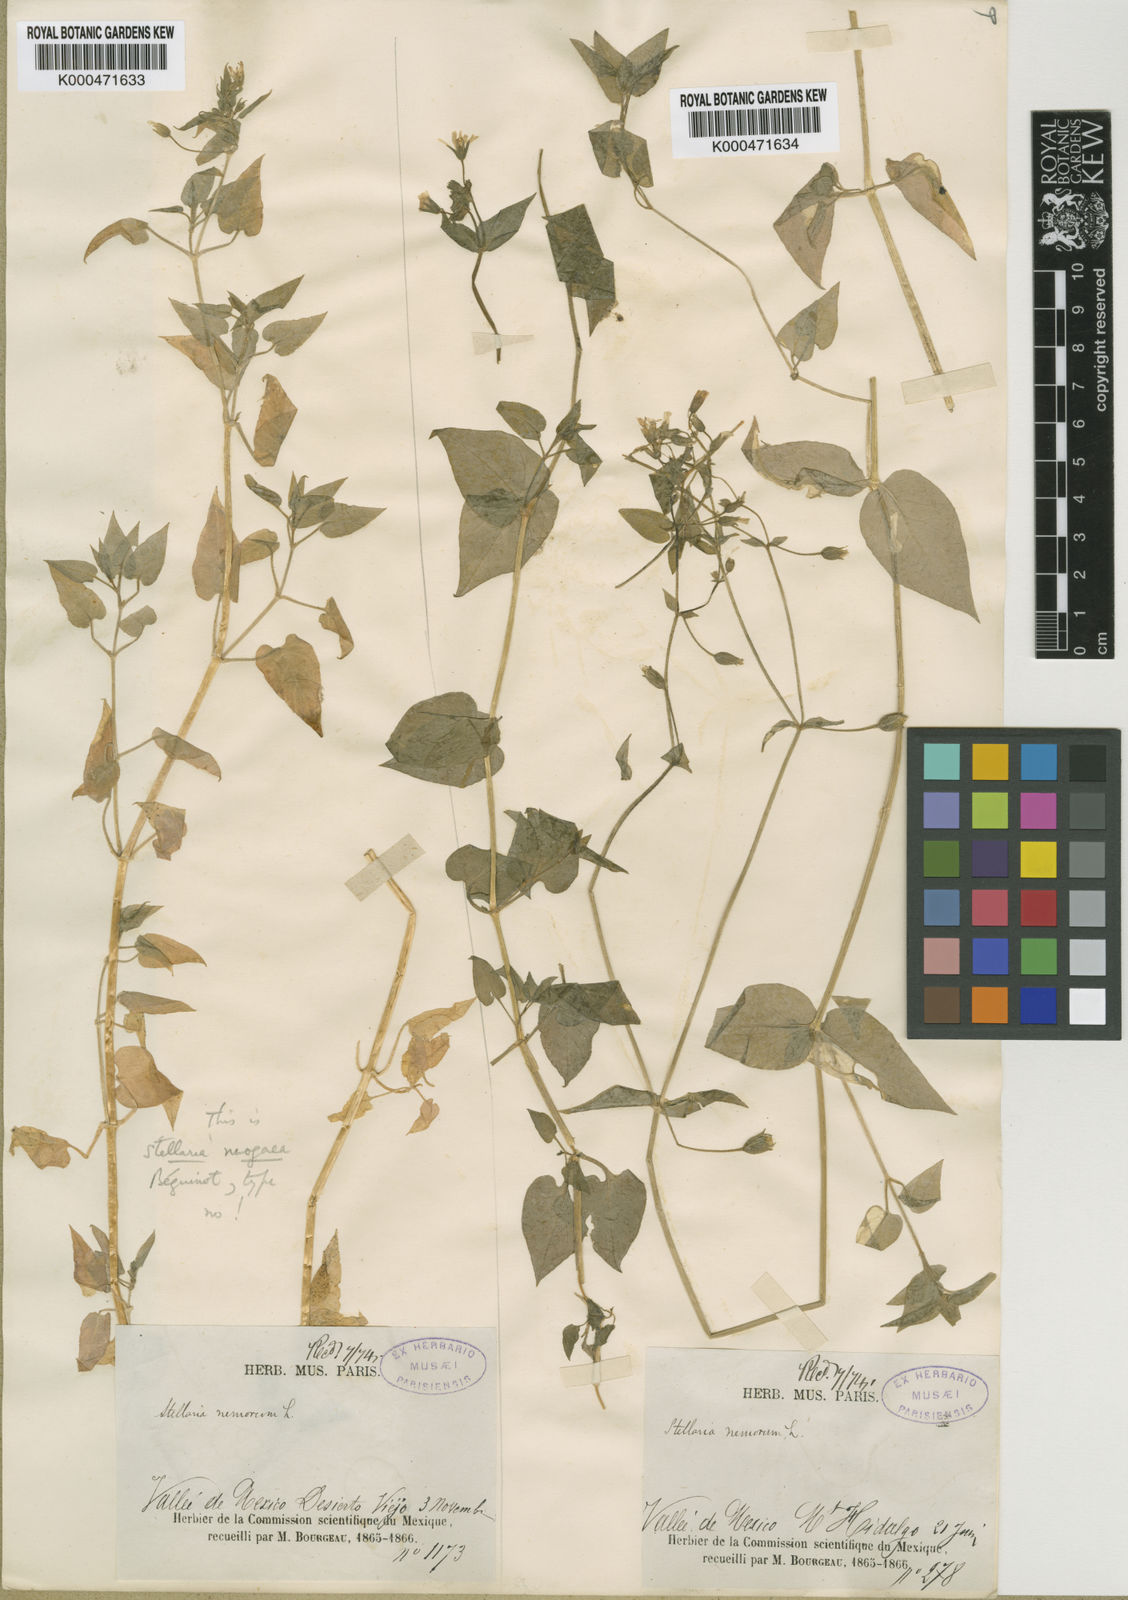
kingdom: Plantae
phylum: Tracheophyta
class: Magnoliopsida
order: Caryophyllales
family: Caryophyllaceae
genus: Stellaria
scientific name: Stellaria cuspidata
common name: Mexican chickweed
